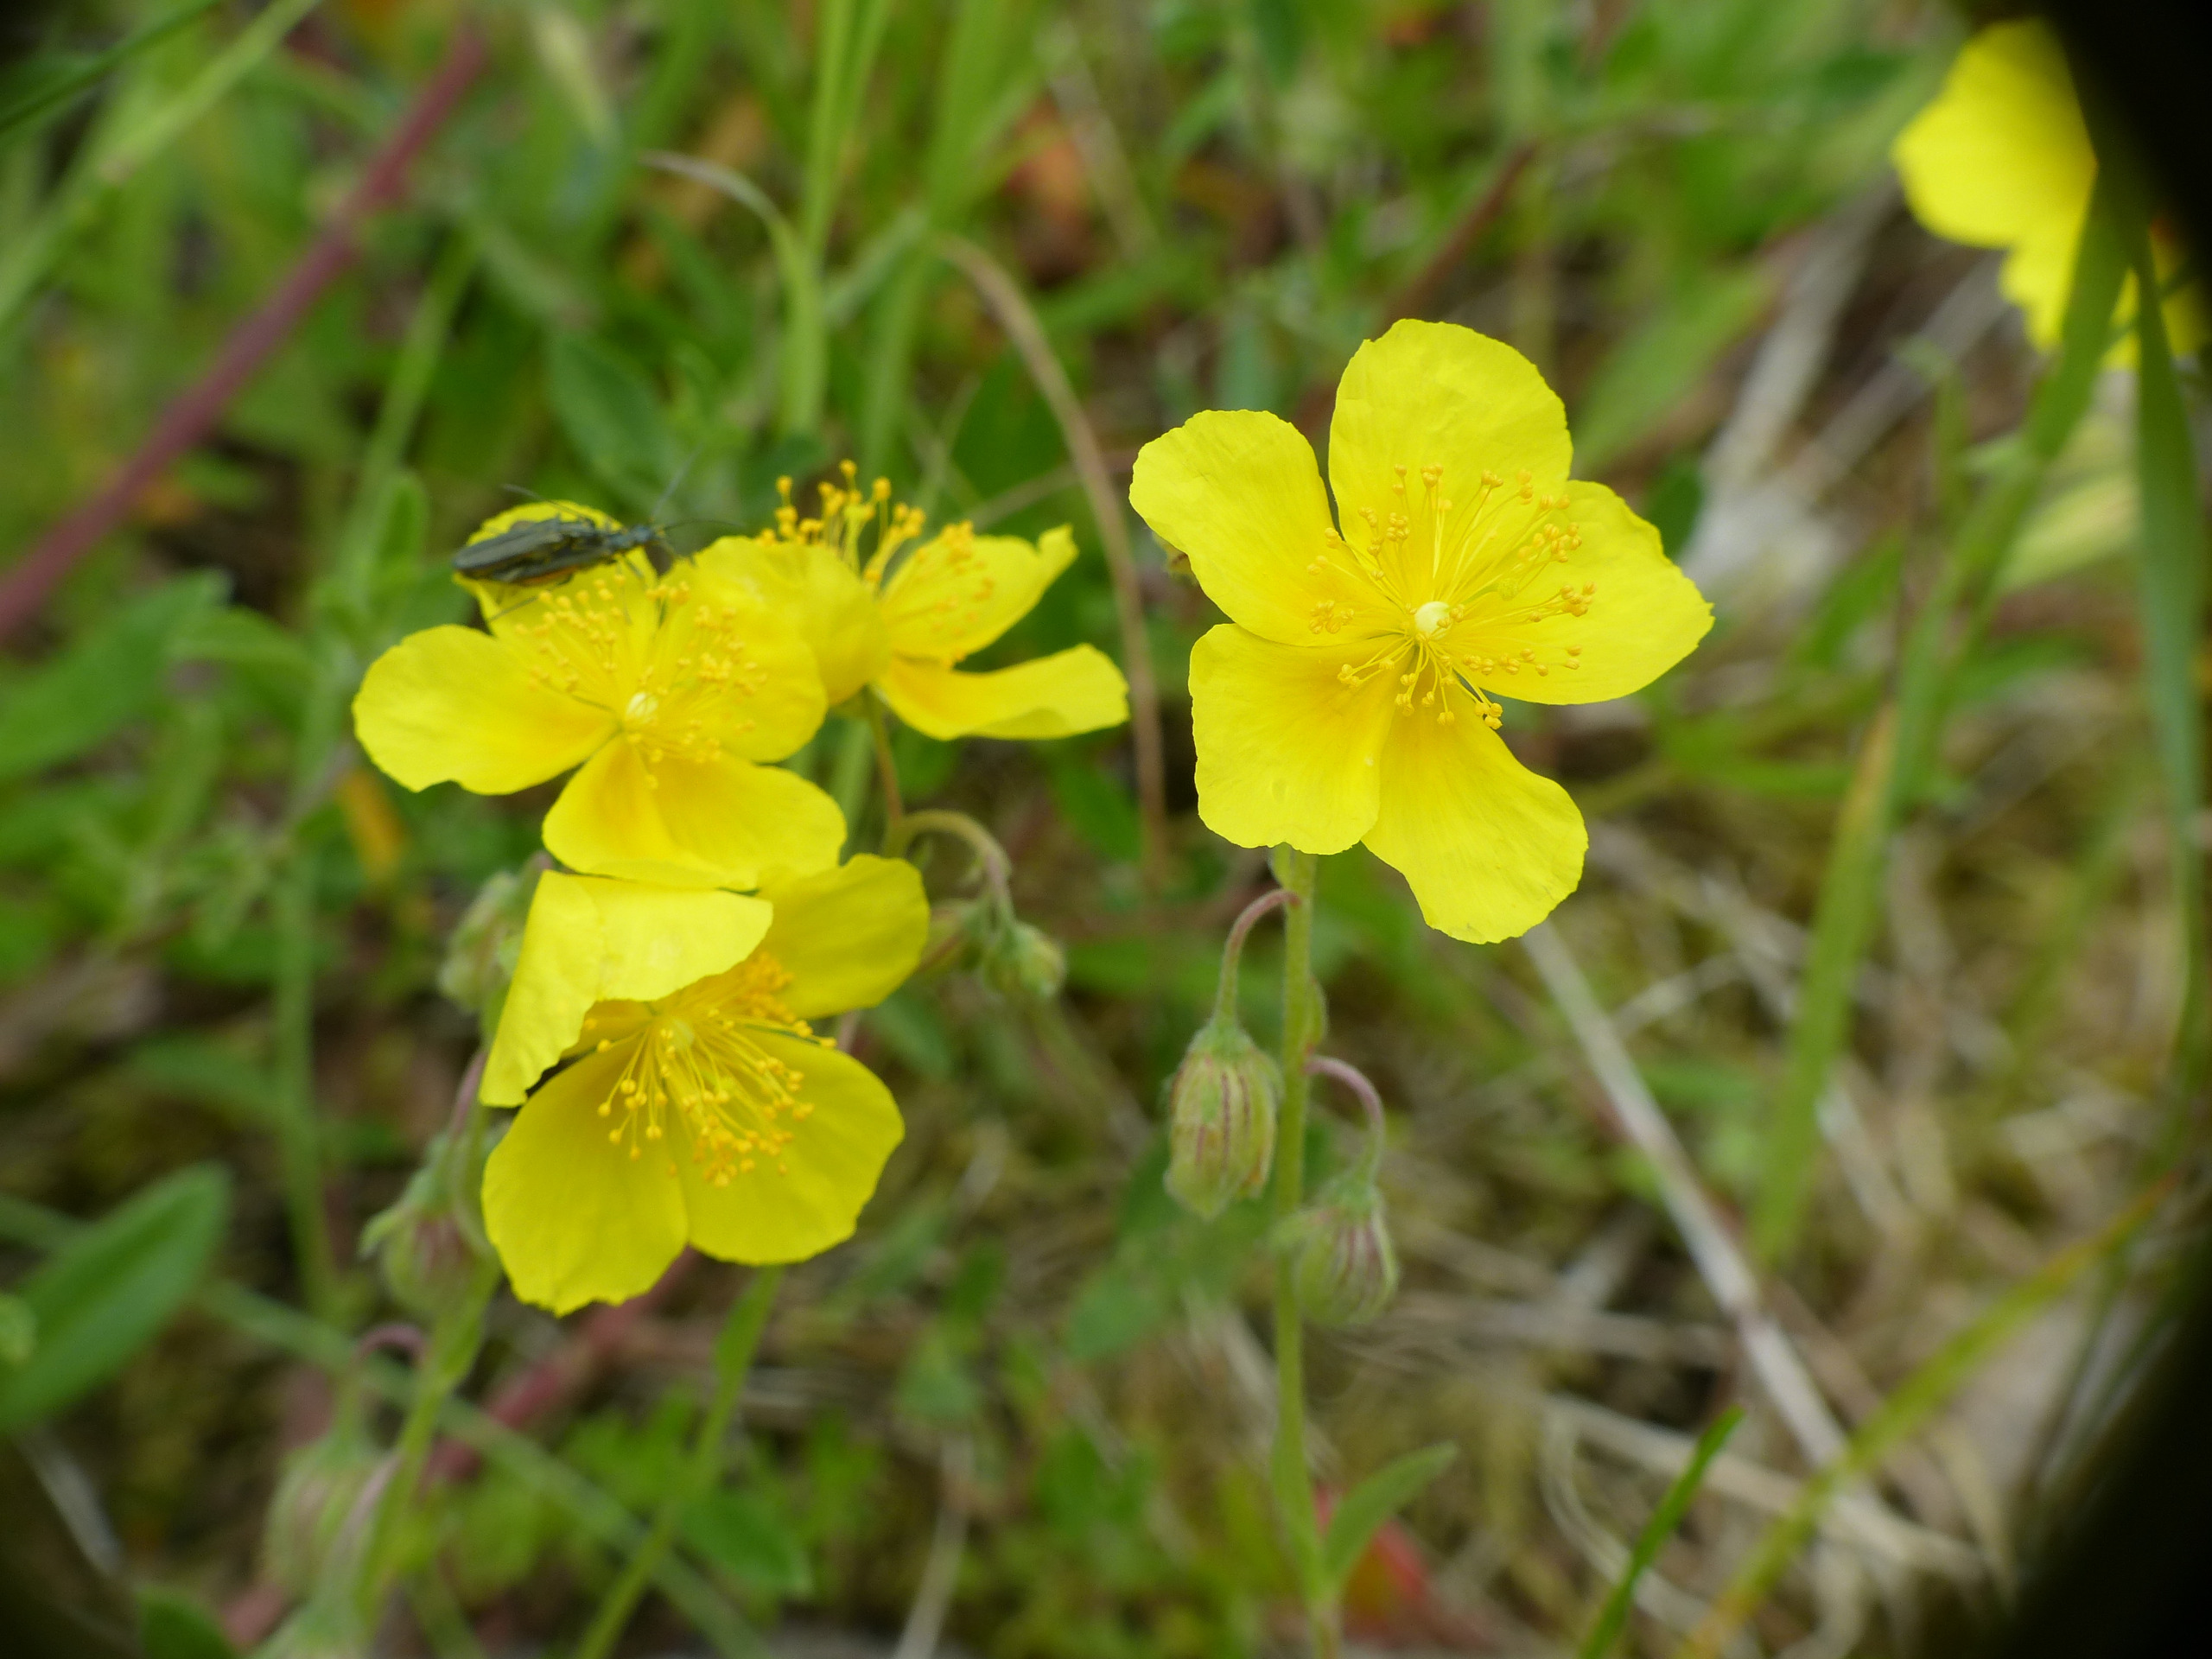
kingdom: Plantae
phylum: Tracheophyta
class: Magnoliopsida
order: Malvales
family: Cistaceae
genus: Helianthemum
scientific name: Helianthemum nummularium
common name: Soløje
